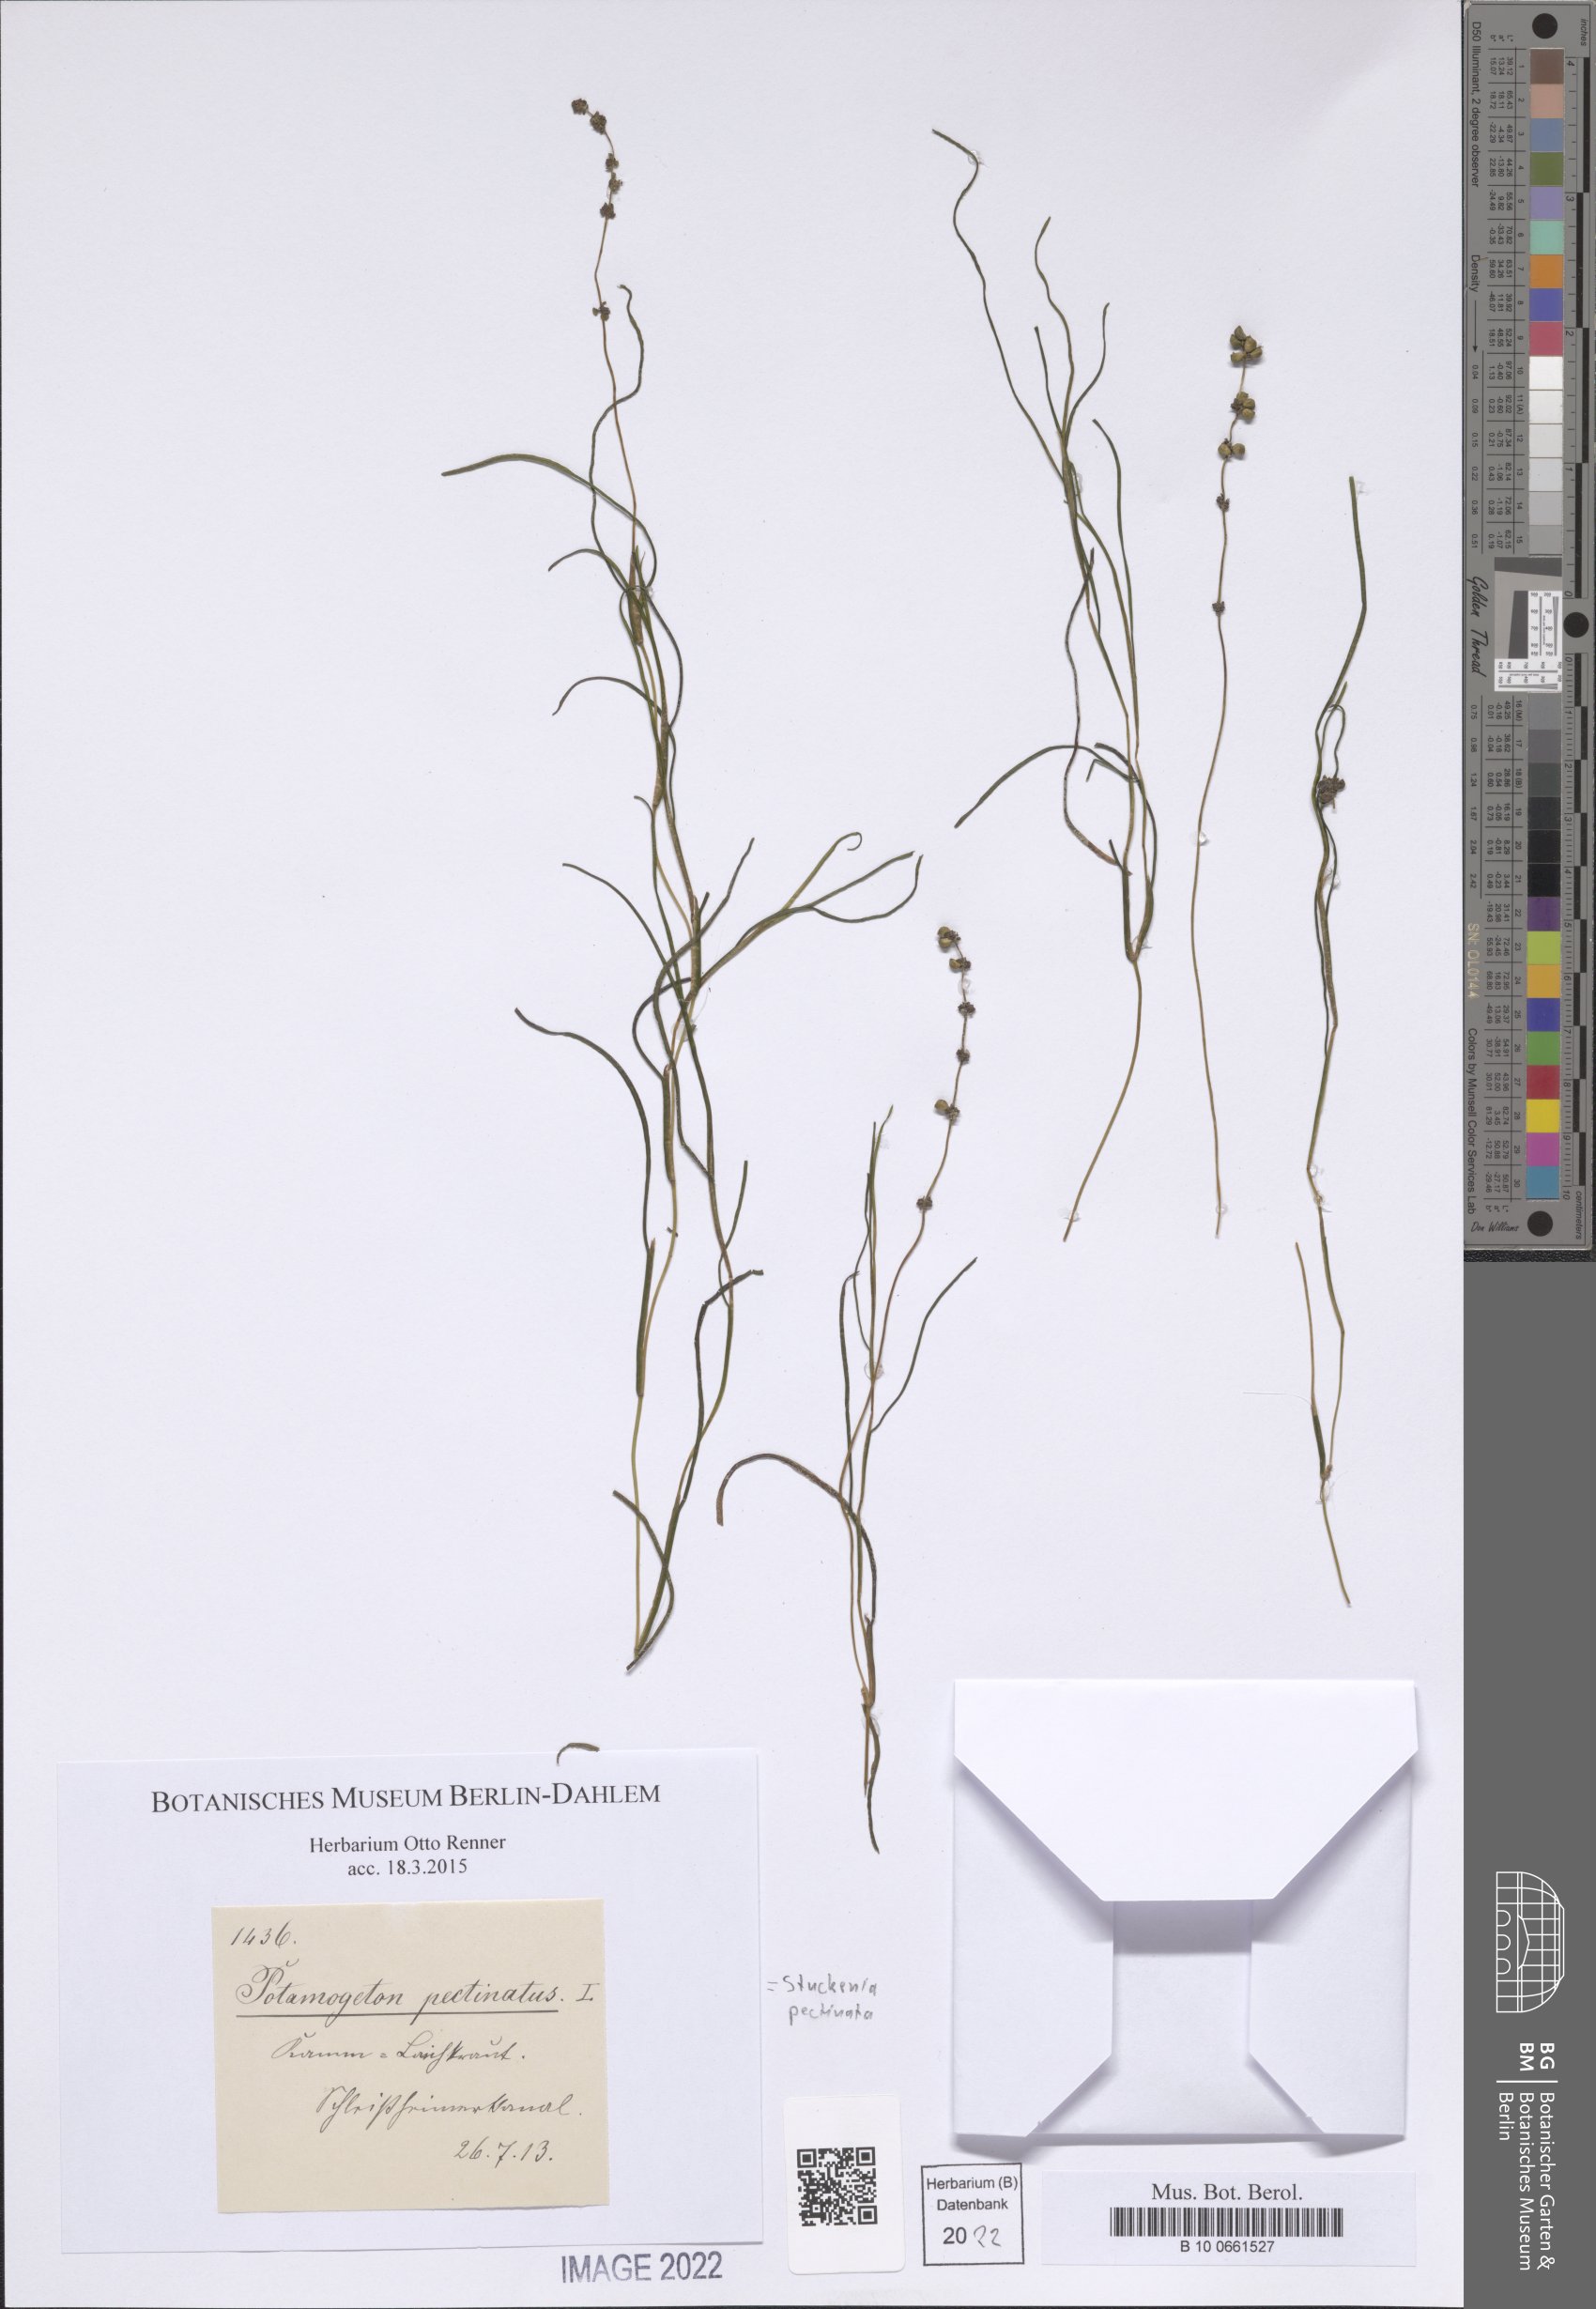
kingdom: Plantae
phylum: Tracheophyta
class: Liliopsida
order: Alismatales
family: Potamogetonaceae
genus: Stuckenia
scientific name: Stuckenia pectinata
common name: Sago pondweed
